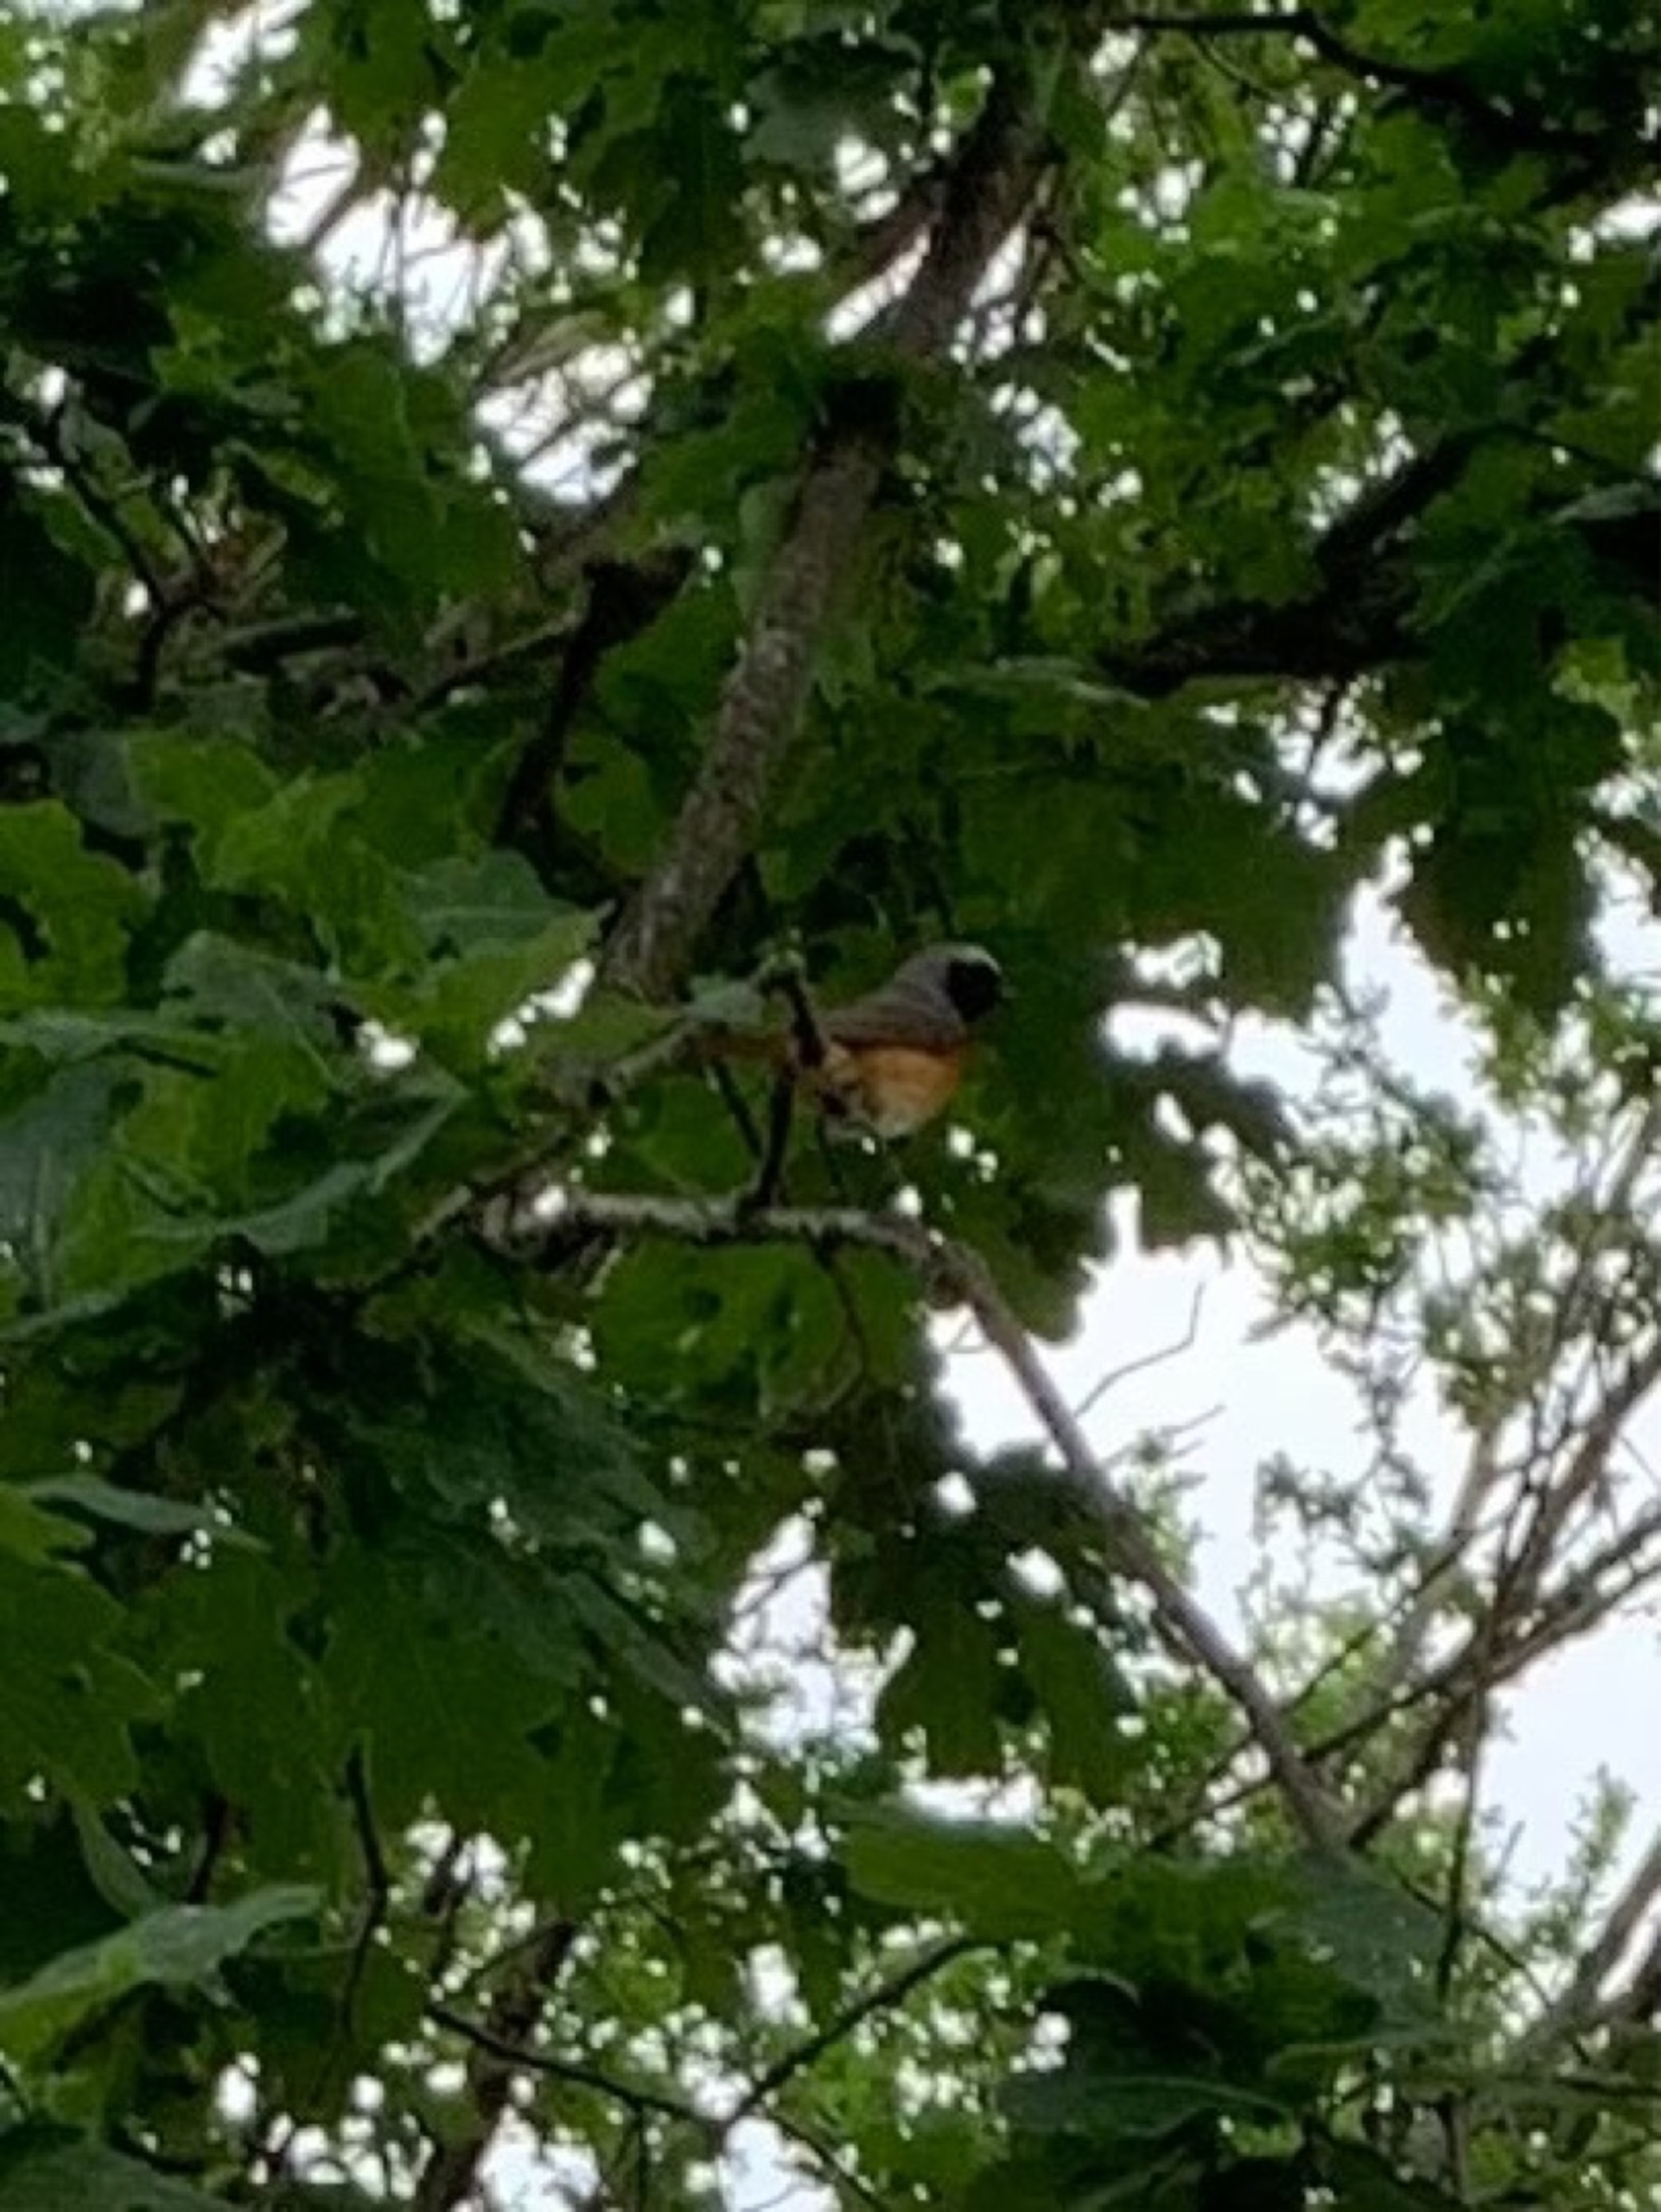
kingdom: Animalia
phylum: Chordata
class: Aves
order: Passeriformes
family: Muscicapidae
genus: Phoenicurus
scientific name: Phoenicurus phoenicurus
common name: Rødstjert
